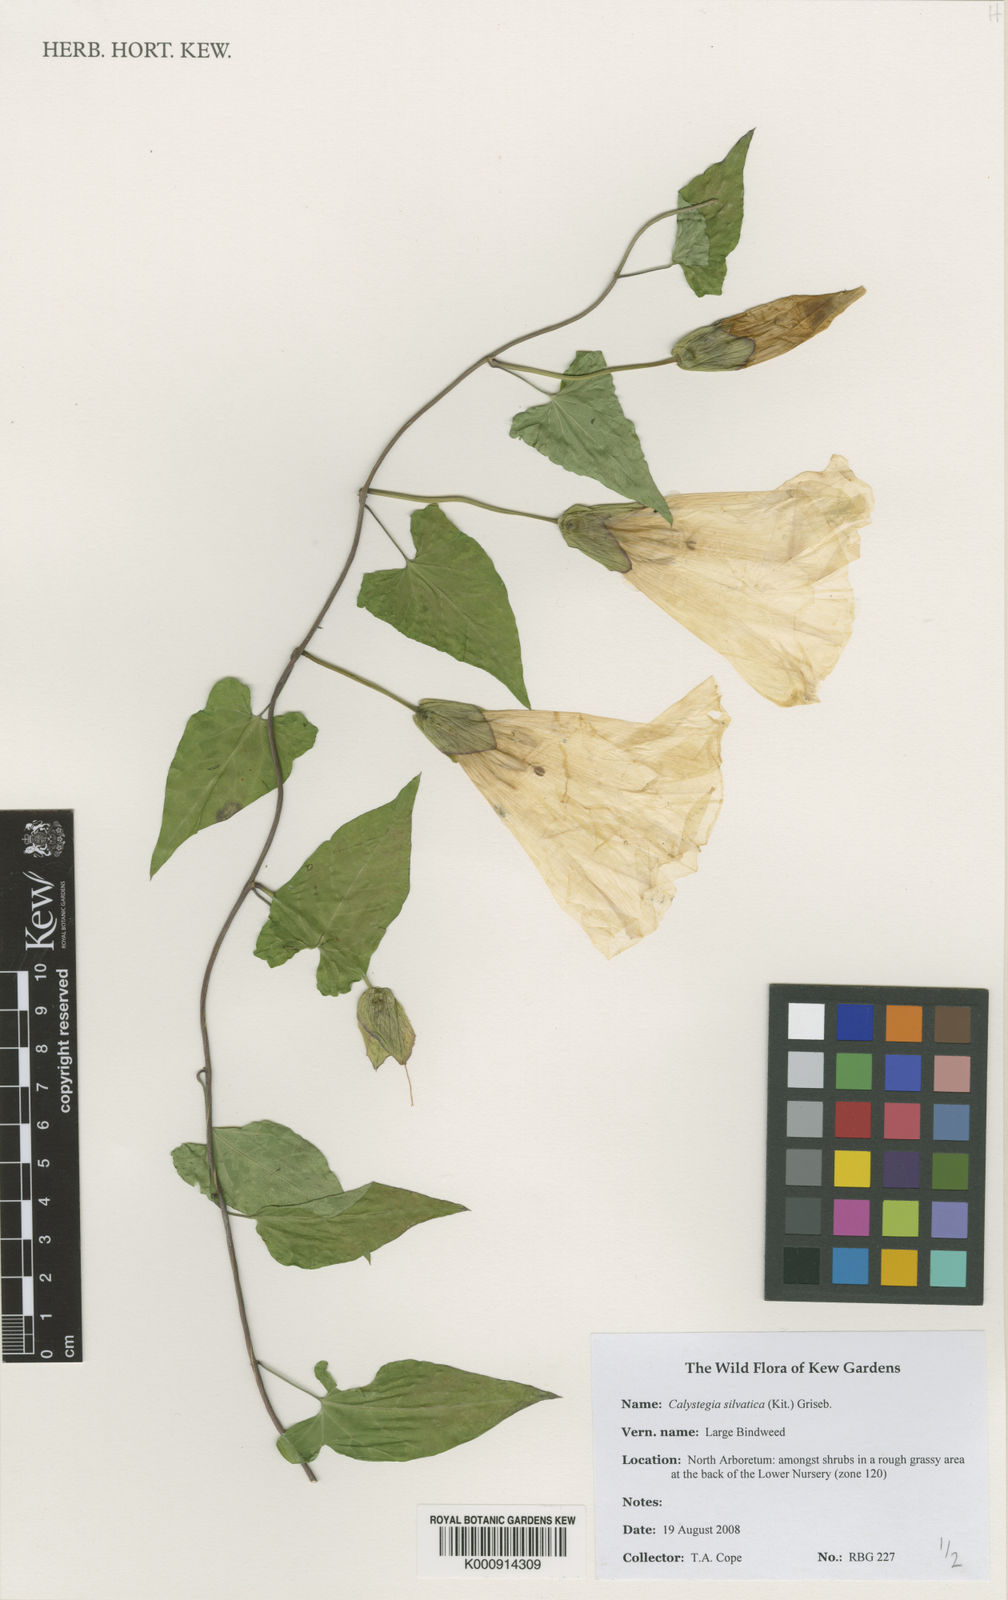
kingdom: Plantae
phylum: Tracheophyta
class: Magnoliopsida
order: Solanales
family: Convolvulaceae
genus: Calystegia
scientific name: Calystegia silvatica
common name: Large bindweed
